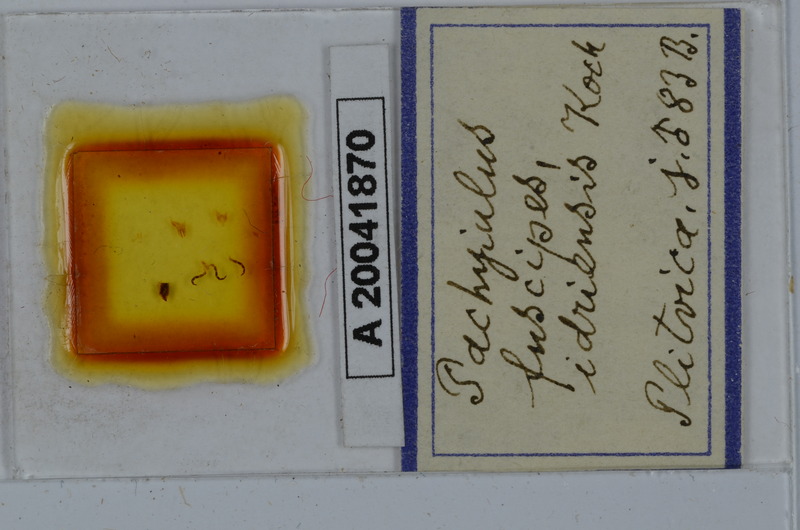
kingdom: Animalia
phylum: Arthropoda
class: Diplopoda
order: Julida
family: Julidae
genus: Acanthoiulus
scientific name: Acanthoiulus fuscipes
